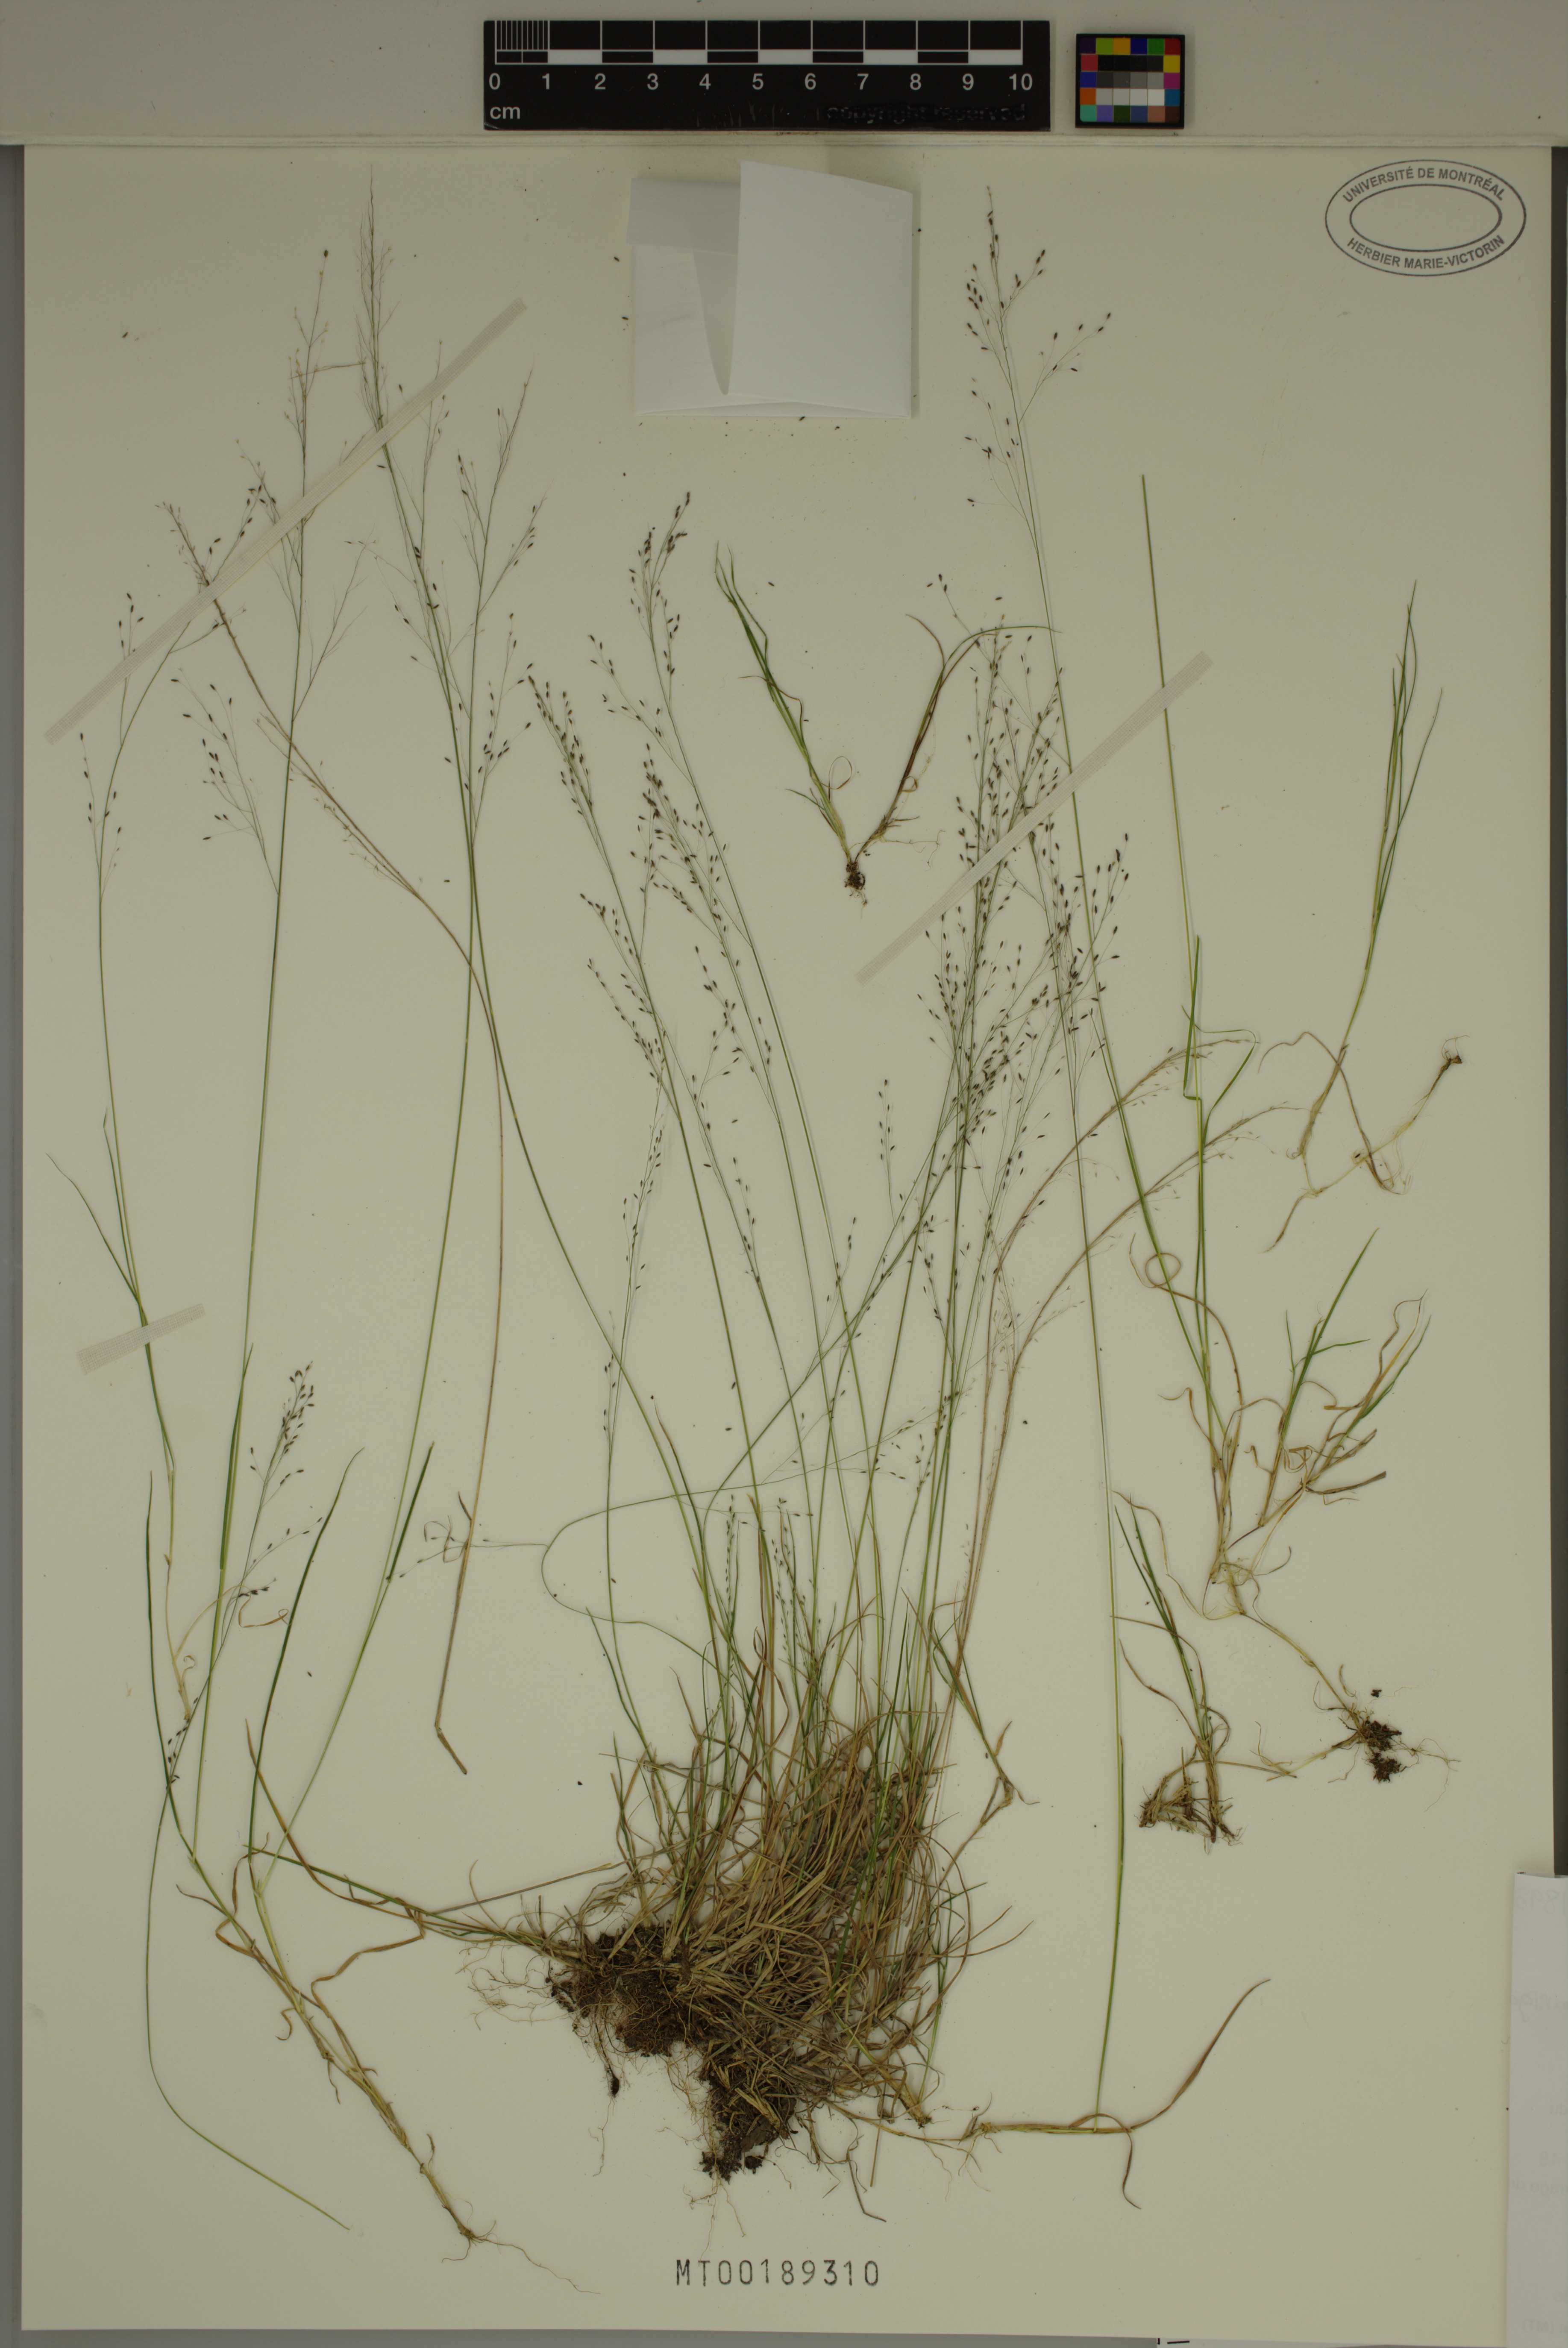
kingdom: Plantae
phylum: Tracheophyta
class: Liliopsida
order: Poales
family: Poaceae
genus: Muhlenbergia
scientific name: Muhlenbergia uniflora
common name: Bog muhly
